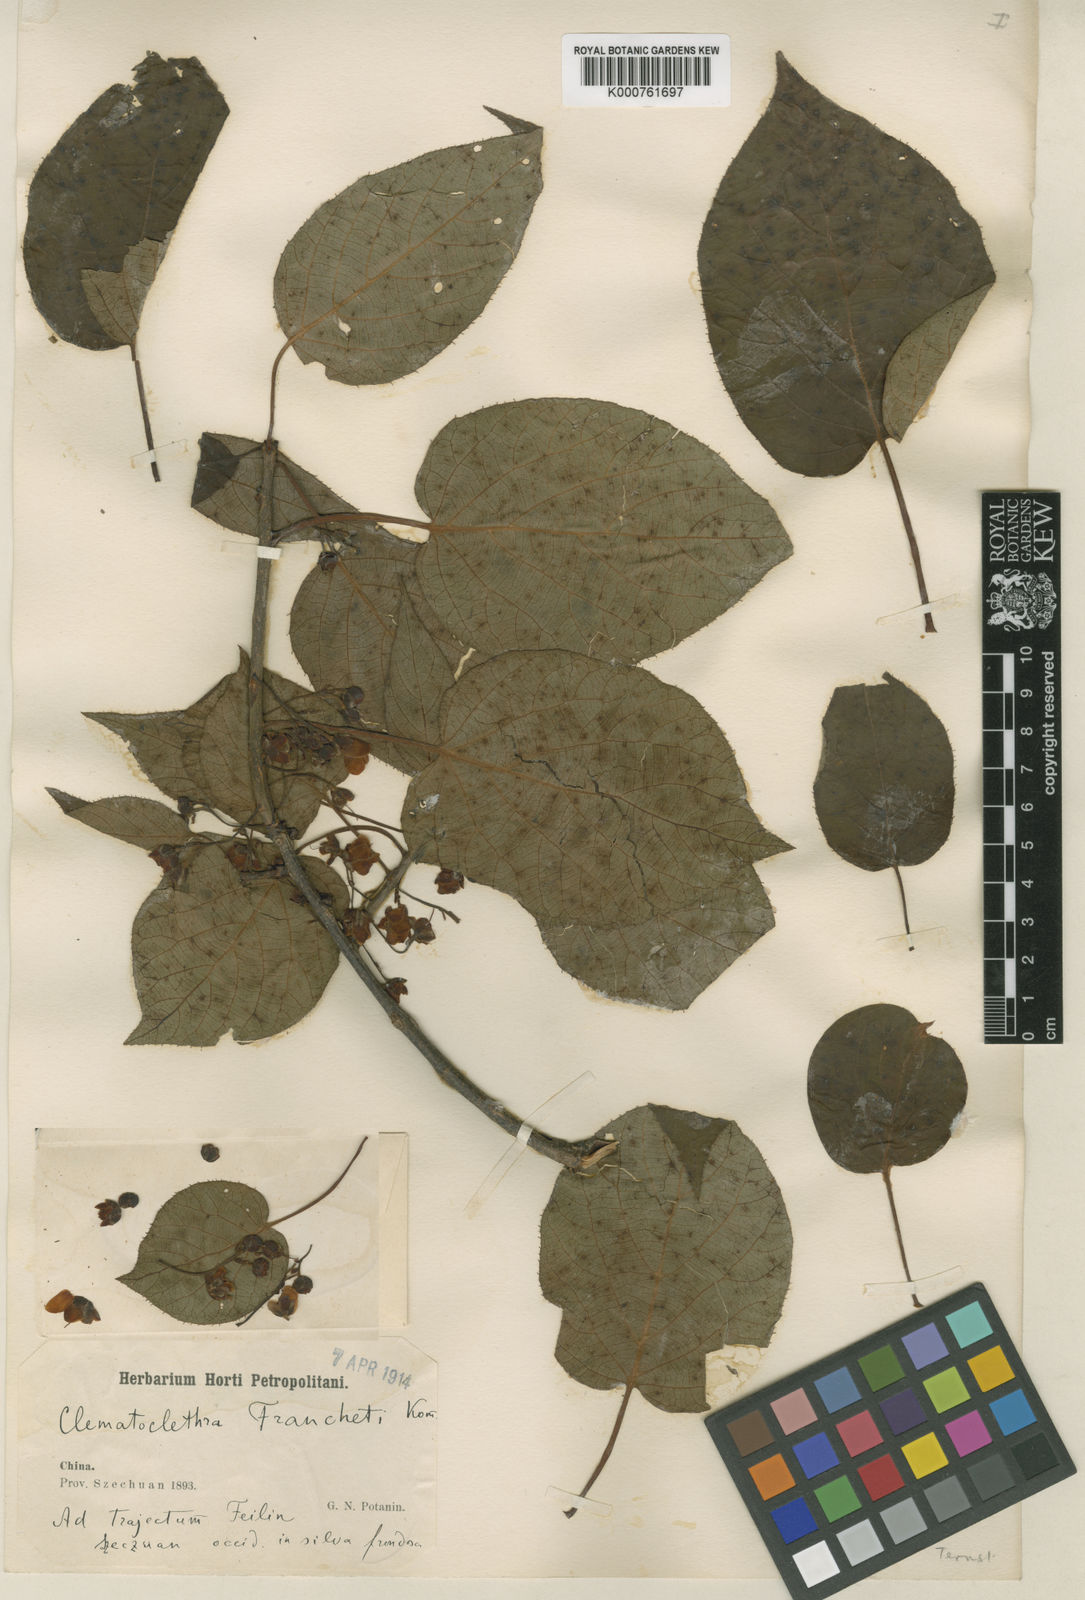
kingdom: Plantae
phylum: Tracheophyta
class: Magnoliopsida
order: Ericales
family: Actinidiaceae
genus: Clematoclethra
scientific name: Clematoclethra scandens
